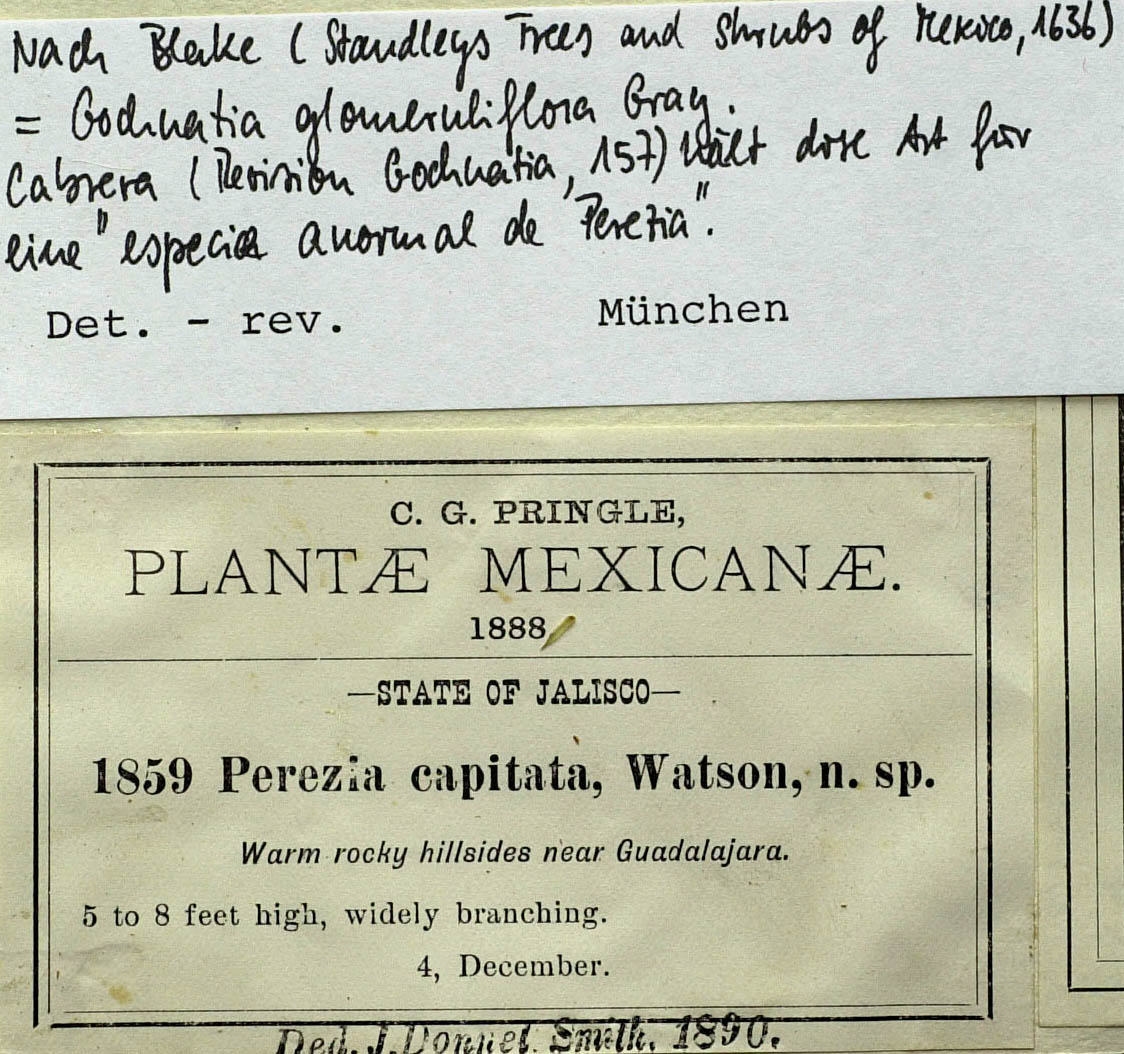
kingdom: Plantae
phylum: Tracheophyta
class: Magnoliopsida
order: Asterales
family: Asteraceae
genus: Acourtia
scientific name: Acourtia glomeriflora
